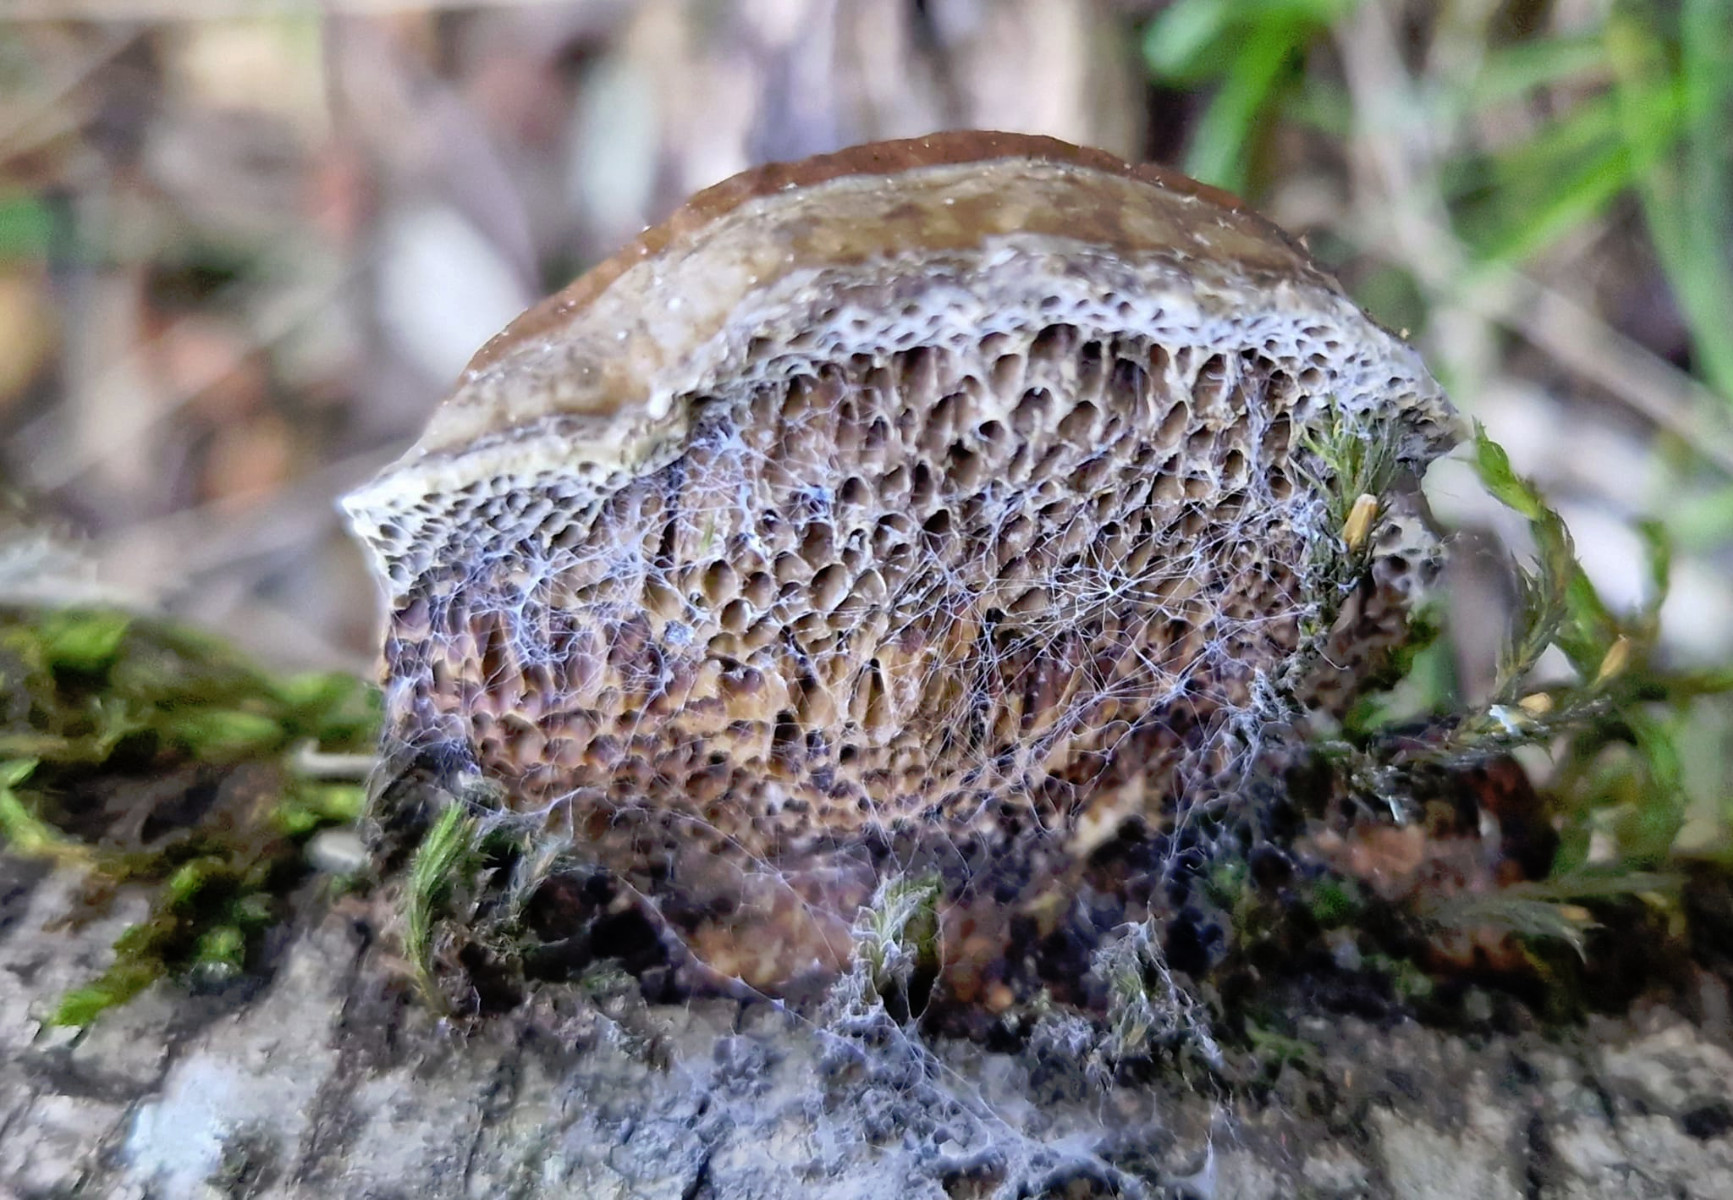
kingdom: Fungi
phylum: Basidiomycota
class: Agaricomycetes
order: Polyporales
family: Polyporaceae
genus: Daedaleopsis
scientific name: Daedaleopsis nitida
